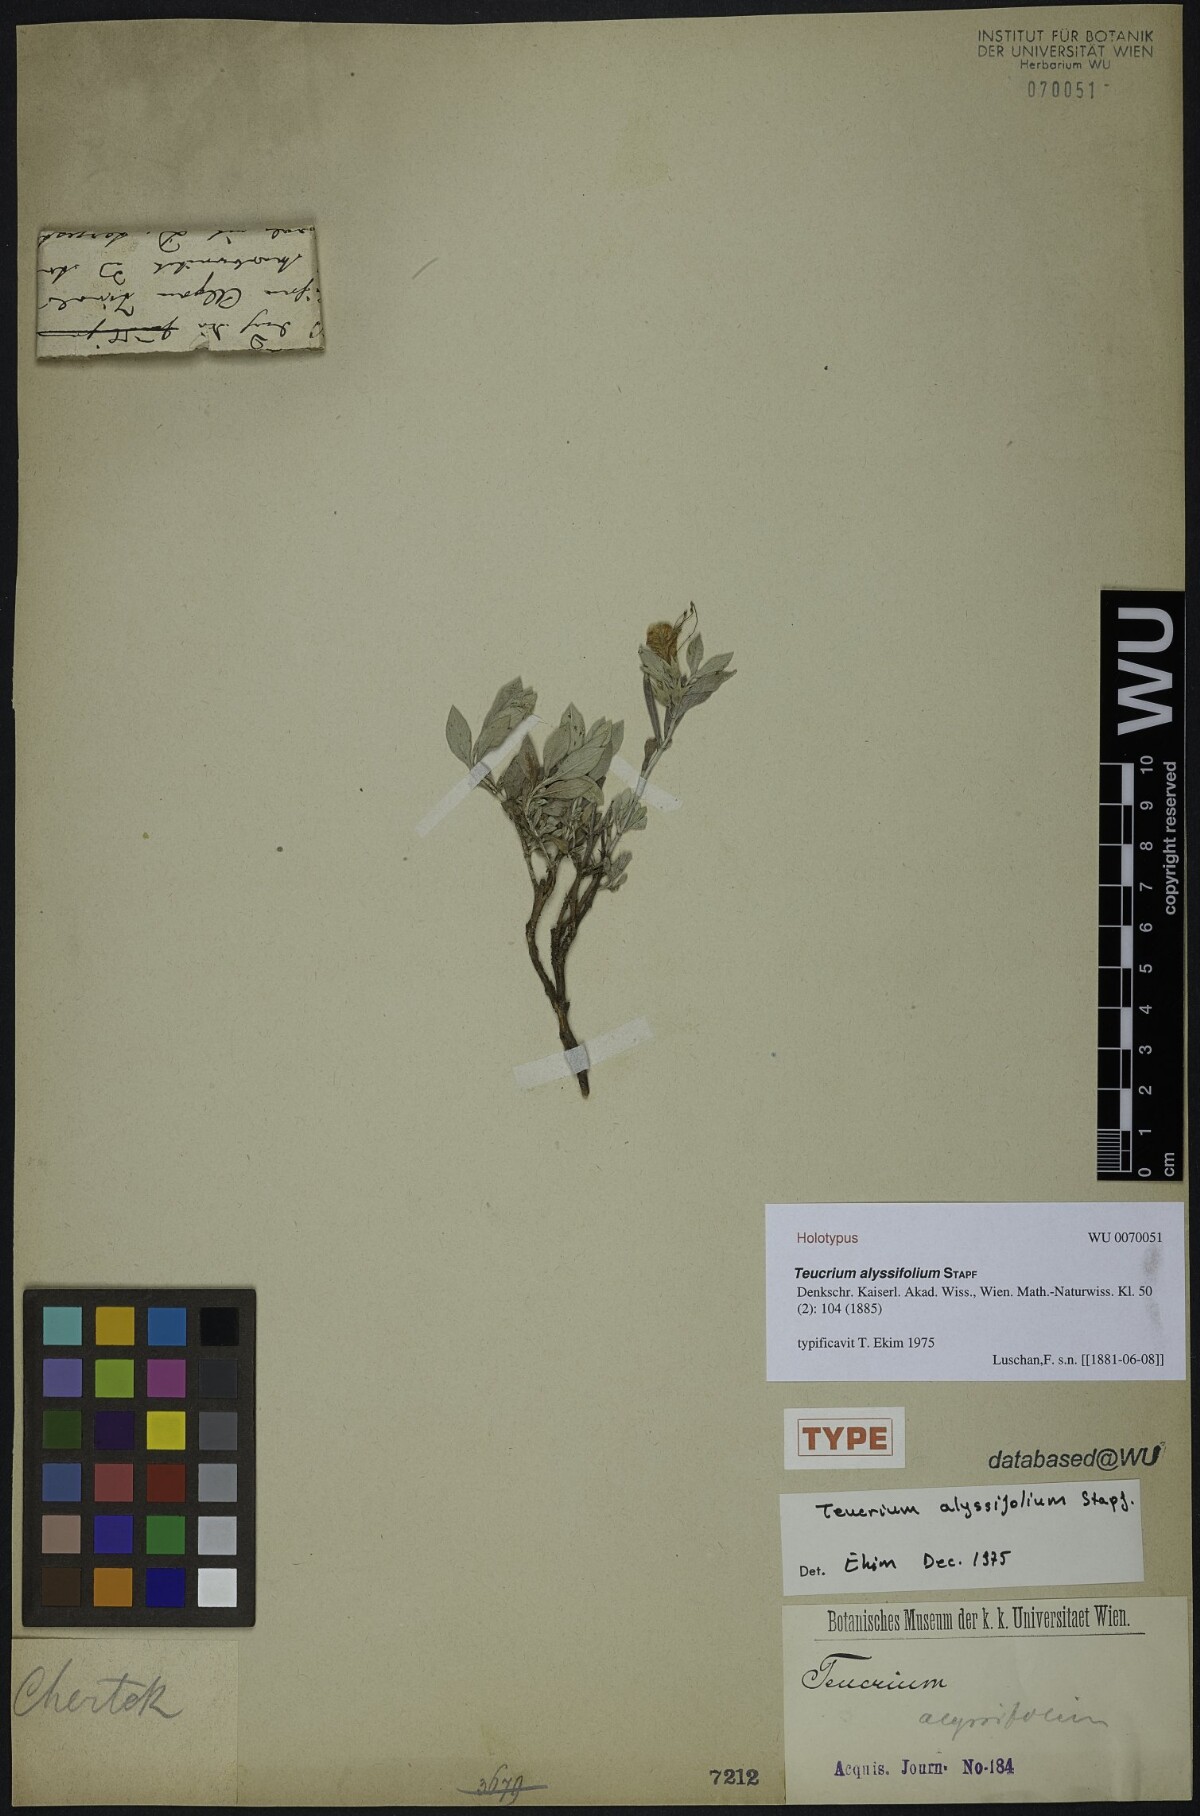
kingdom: Plantae
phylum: Tracheophyta
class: Magnoliopsida
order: Lamiales
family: Lamiaceae
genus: Teucrium
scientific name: Teucrium alyssifolium
